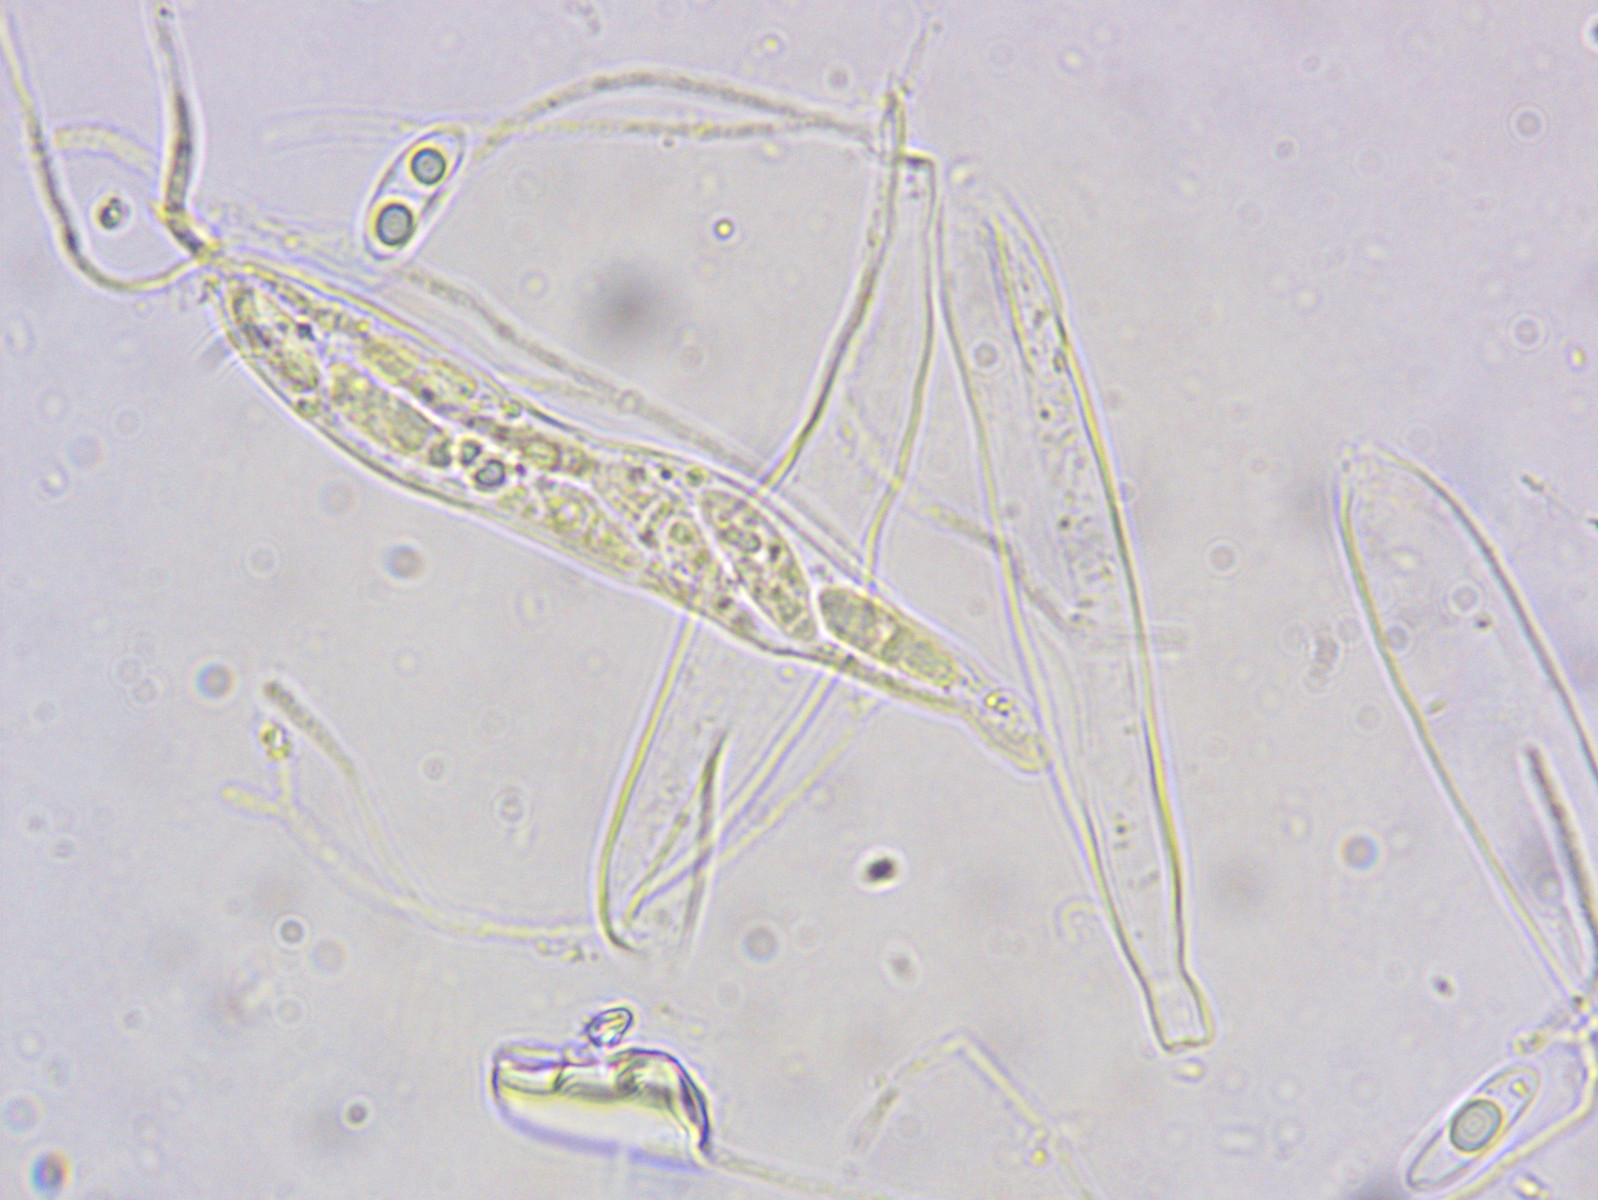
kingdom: Fungi
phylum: Ascomycota
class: Leotiomycetes
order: Helotiales
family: Hyaloscyphaceae
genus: Hyaloscypha
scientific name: Hyaloscypha minuta
